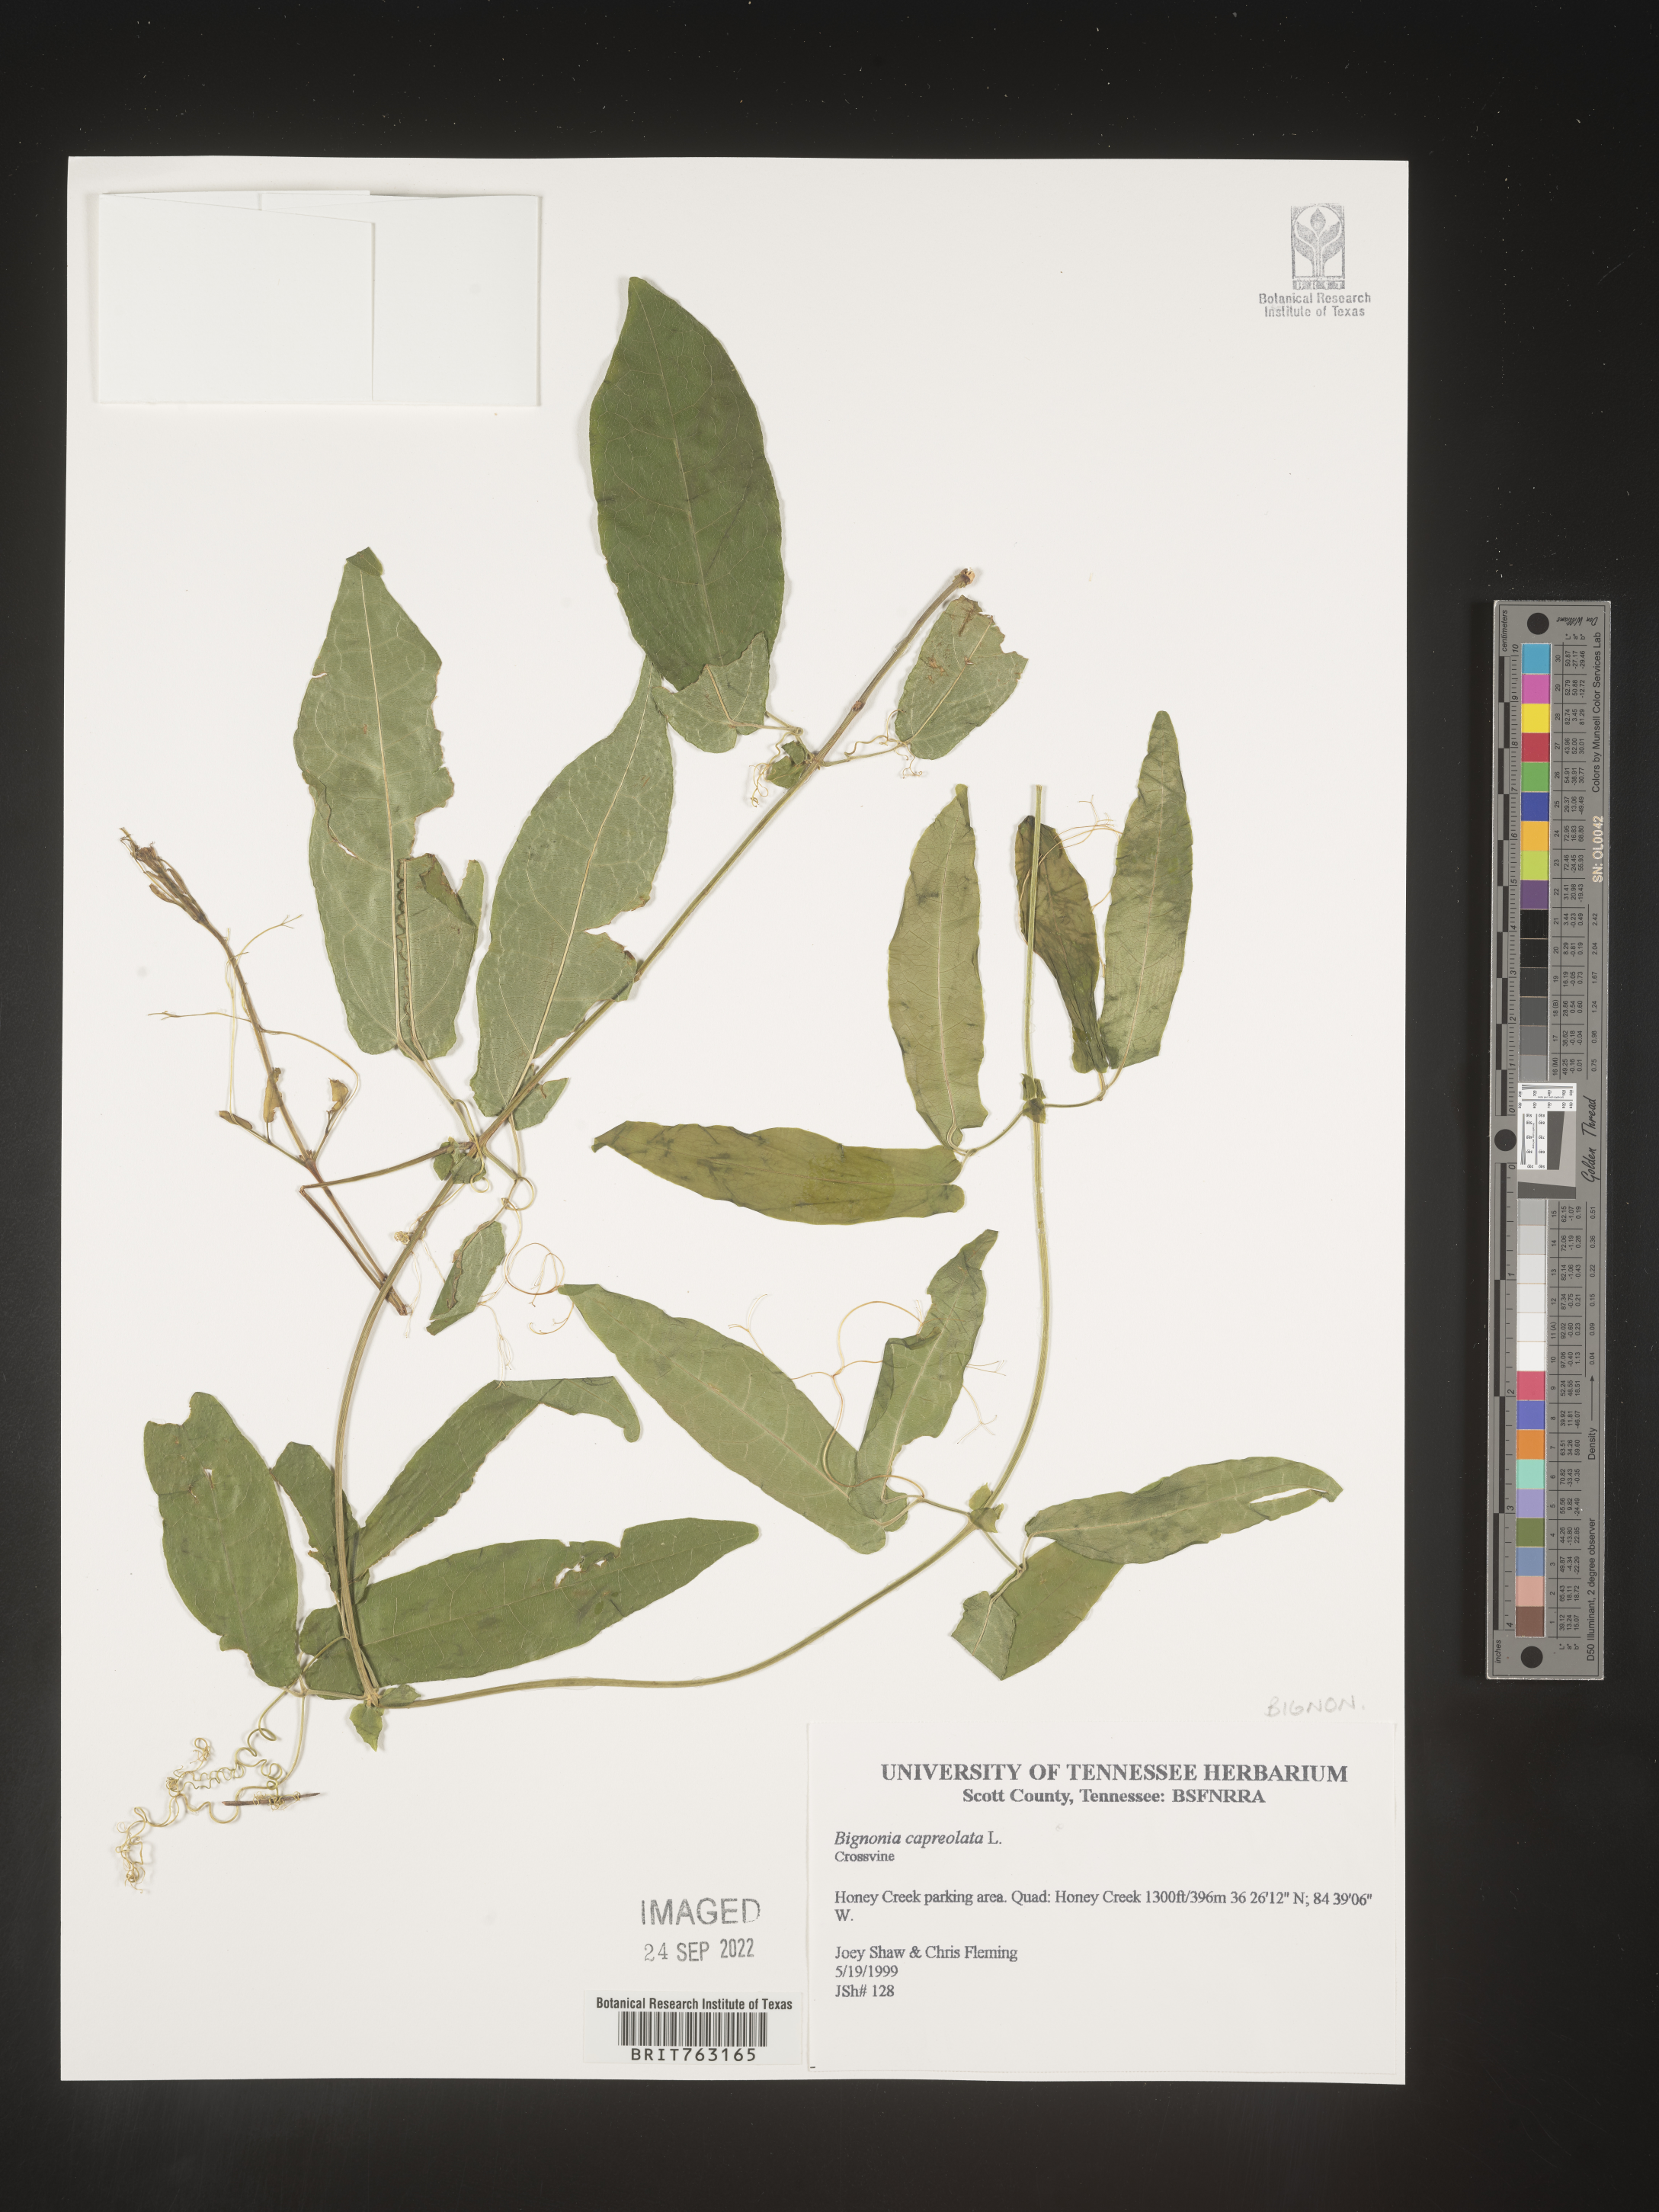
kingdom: Plantae
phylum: Tracheophyta
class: Magnoliopsida
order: Lamiales
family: Bignoniaceae
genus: Bignonia
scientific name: Bignonia capreolata
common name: Crossvine
